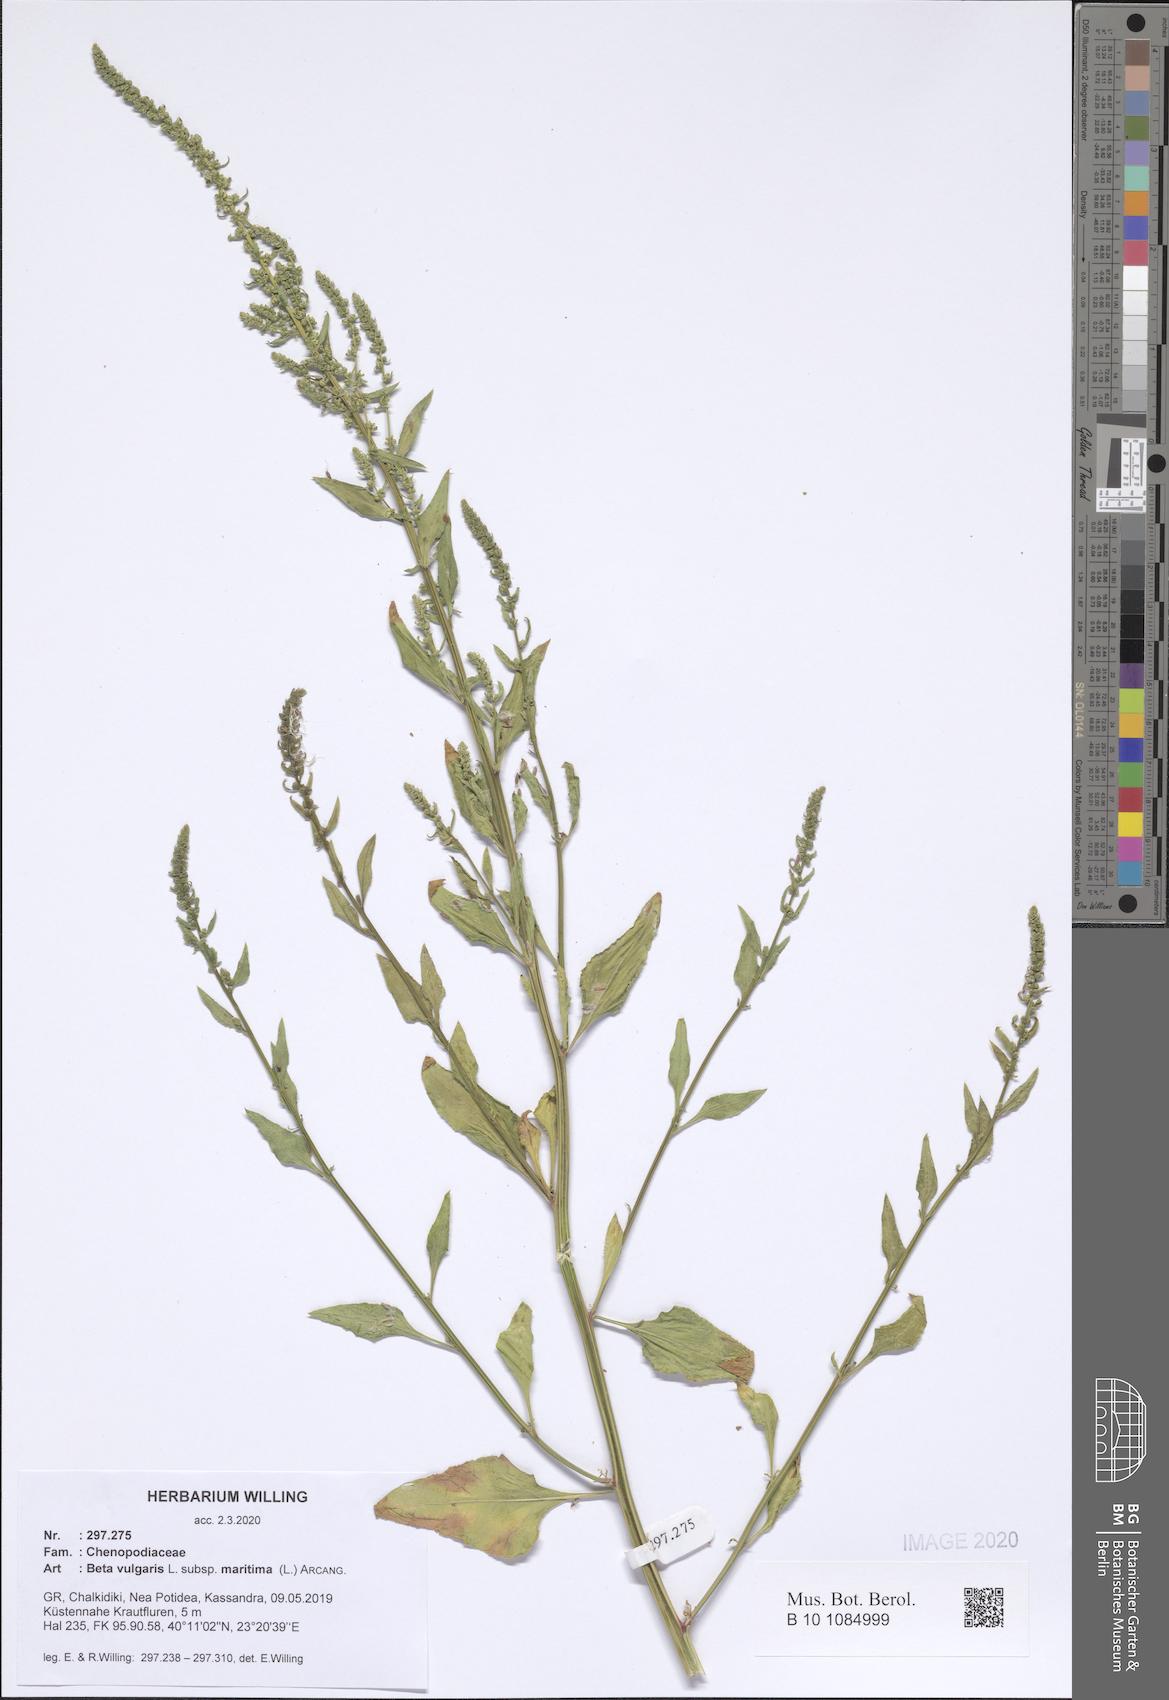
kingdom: Plantae
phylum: Tracheophyta
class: Magnoliopsida
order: Caryophyllales
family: Amaranthaceae
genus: Beta
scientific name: Beta maritima
